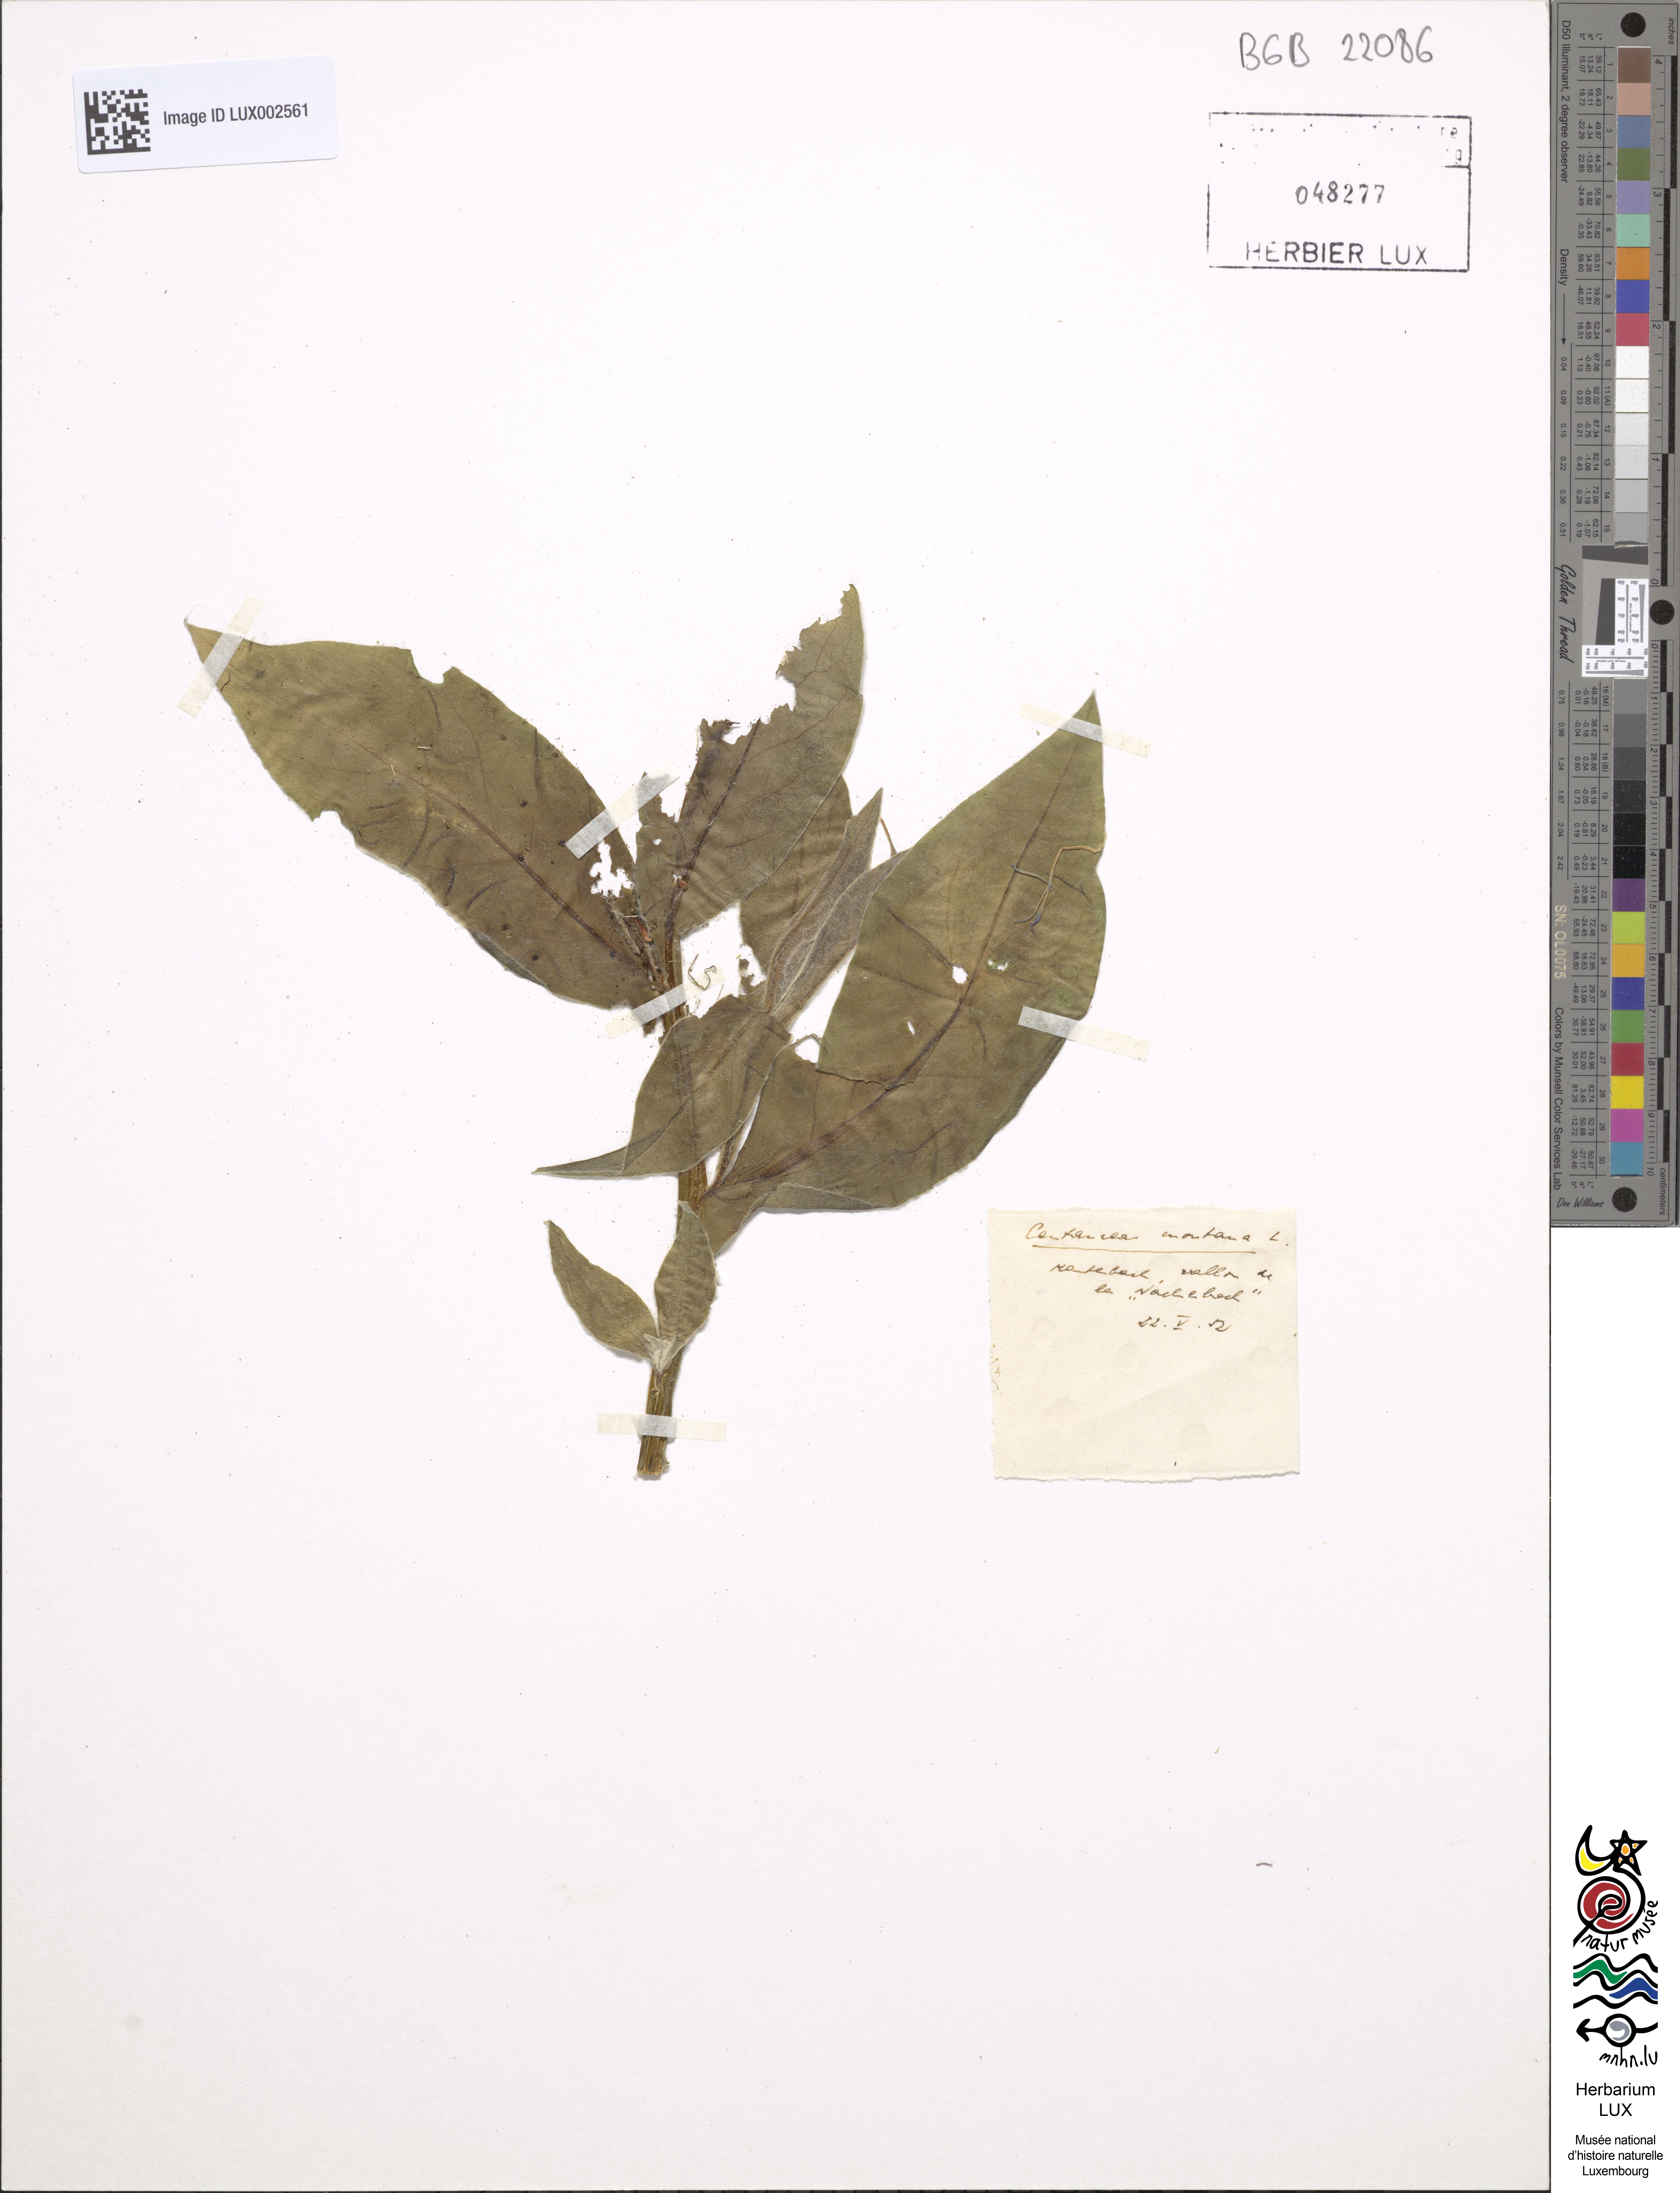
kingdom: Plantae
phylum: Tracheophyta
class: Magnoliopsida
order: Asterales
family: Asteraceae
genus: Centaurea
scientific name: Centaurea montana
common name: Perennial cornflower
